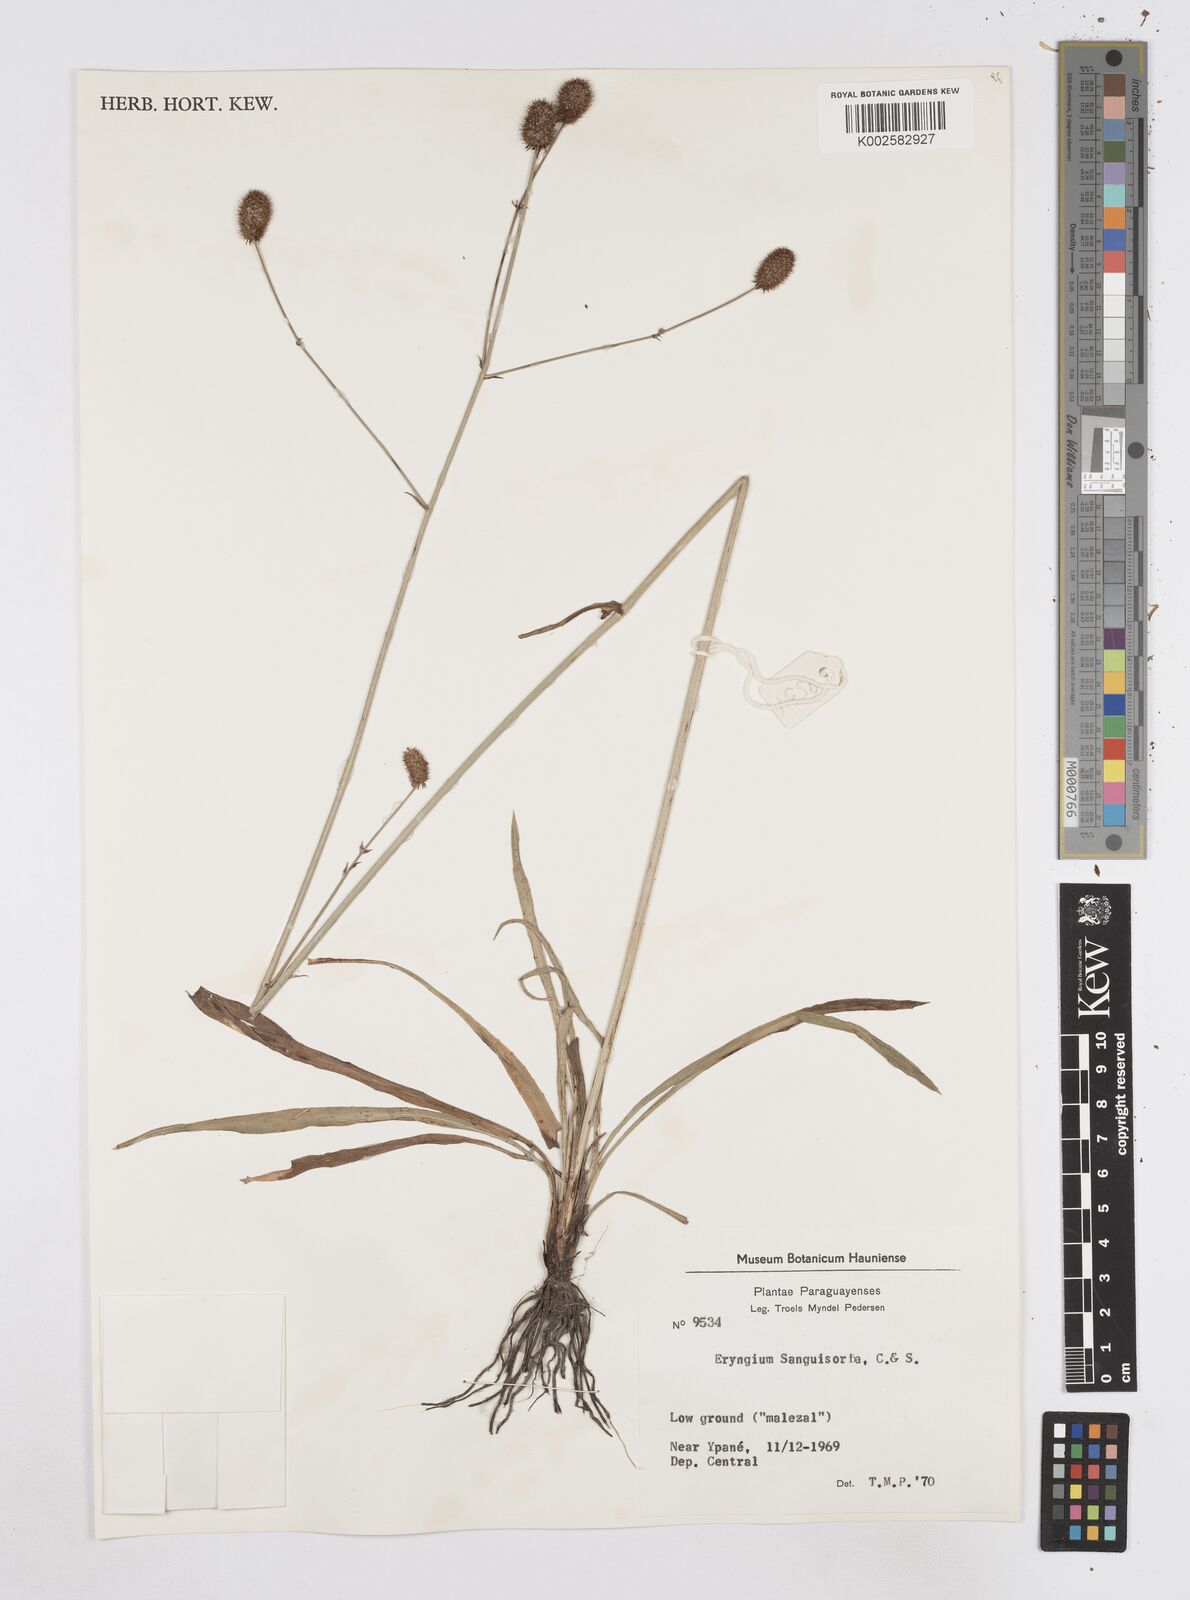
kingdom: Plantae
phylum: Tracheophyta
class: Magnoliopsida
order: Apiales
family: Apiaceae
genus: Eryngium
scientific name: Eryngium sanguisorba
